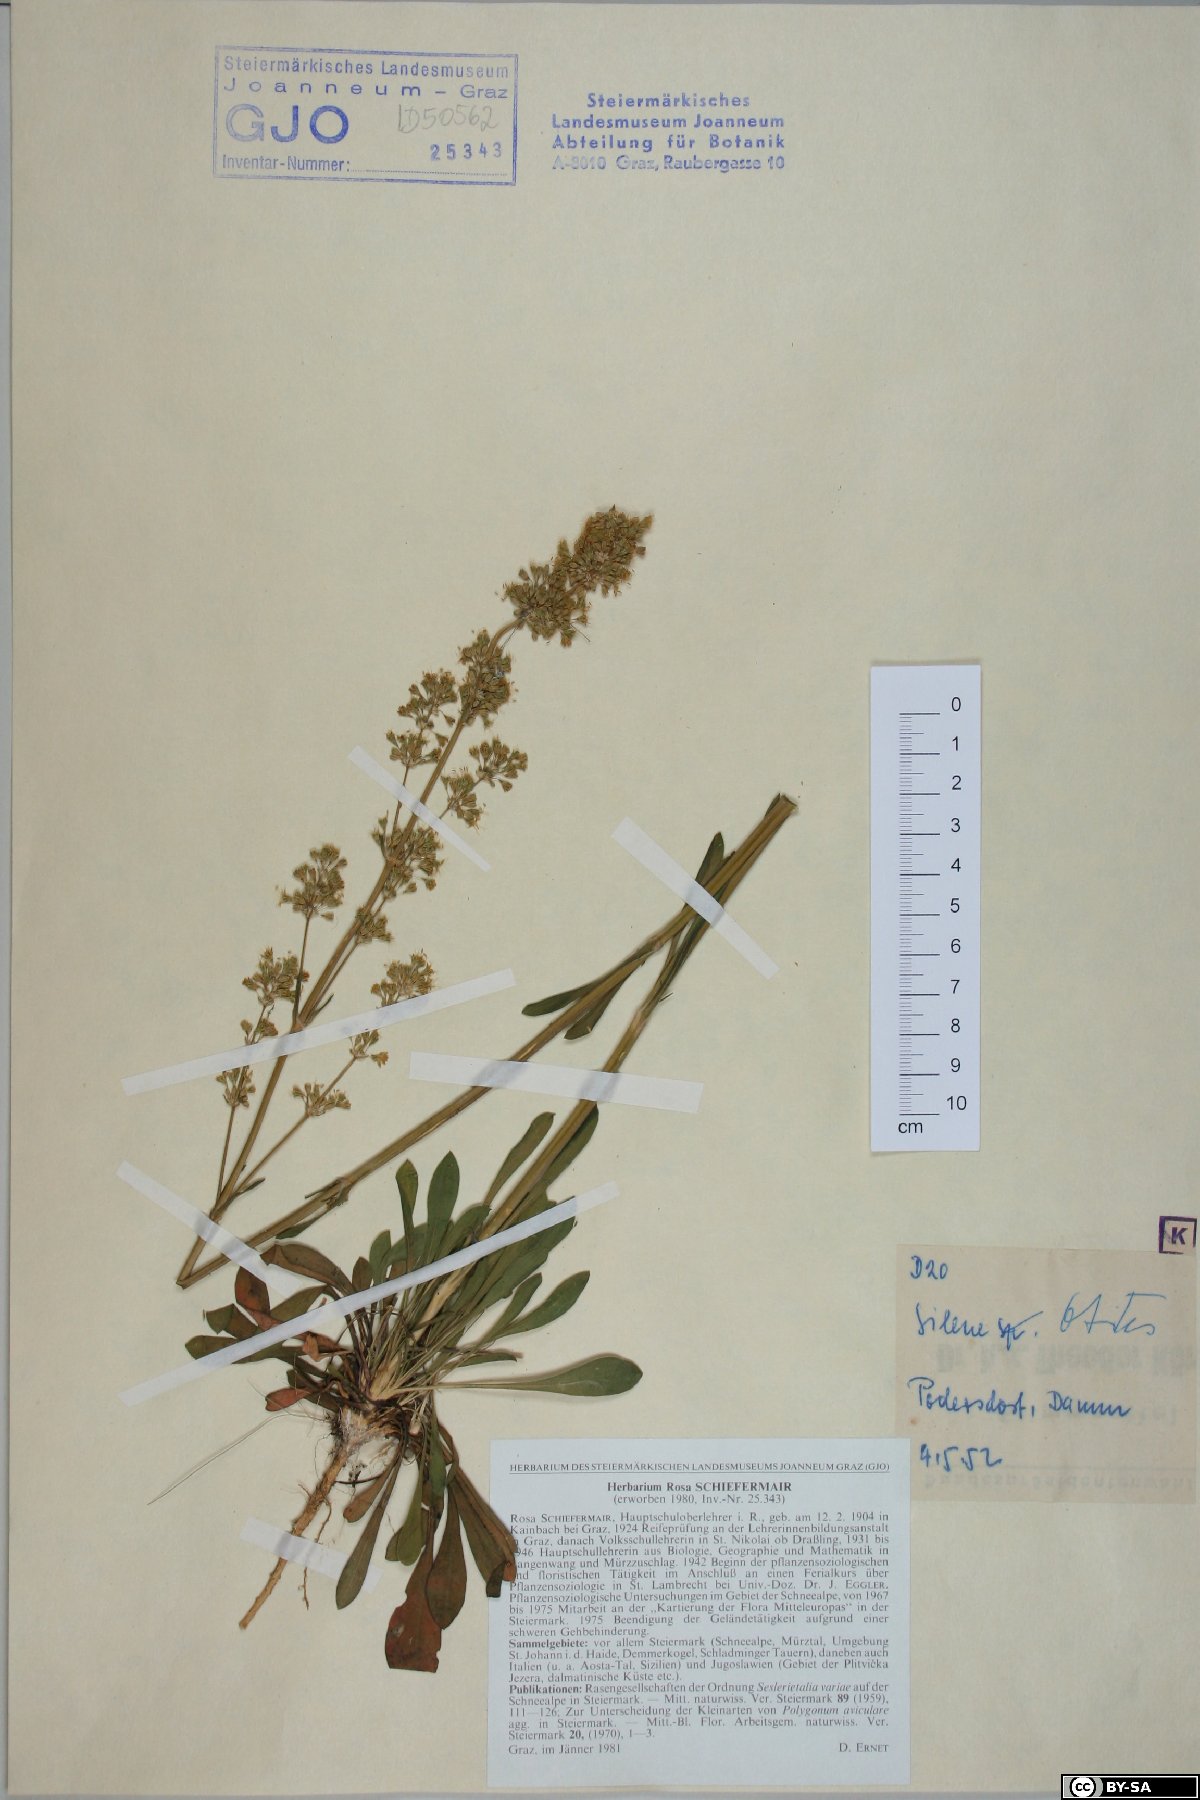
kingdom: Plantae
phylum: Tracheophyta
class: Magnoliopsida
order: Caryophyllales
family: Caryophyllaceae
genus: Silene
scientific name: Silene otites
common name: Spanish catchfly
